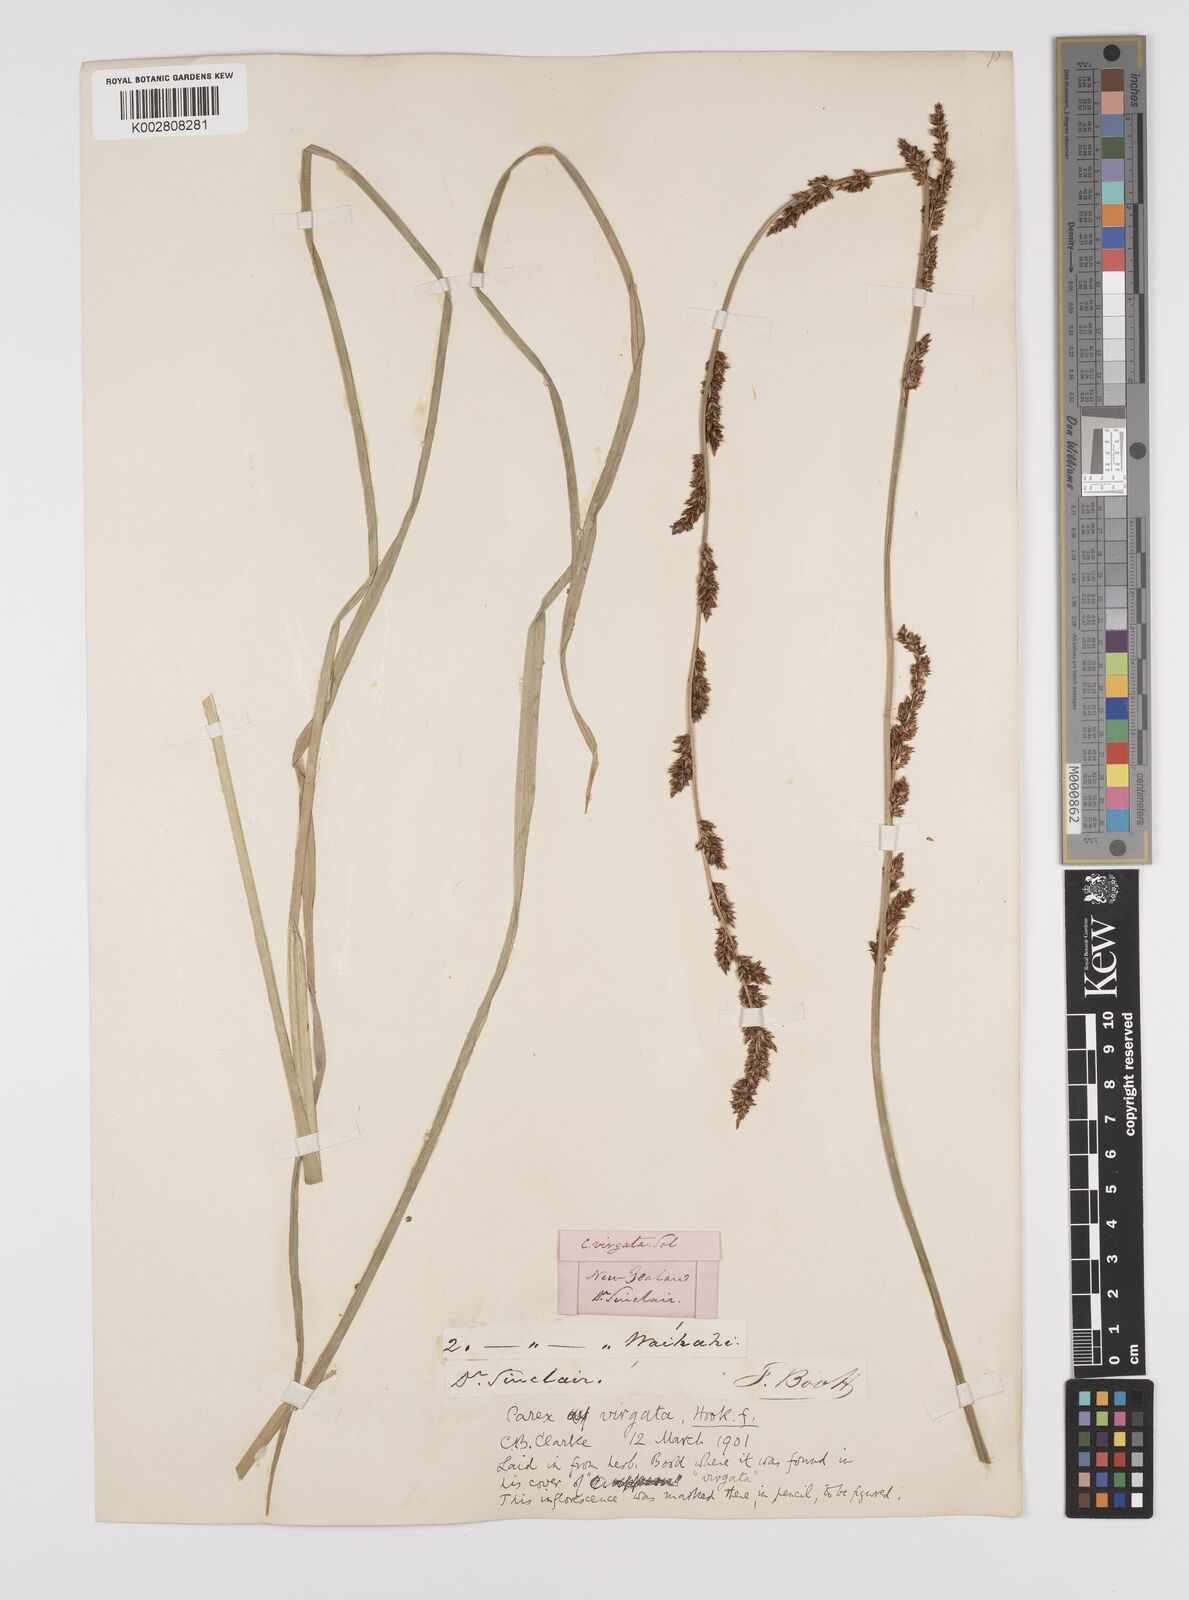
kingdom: Plantae
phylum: Tracheophyta
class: Liliopsida
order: Poales
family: Cyperaceae
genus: Carex
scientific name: Carex appressa
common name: Tussock sedge
